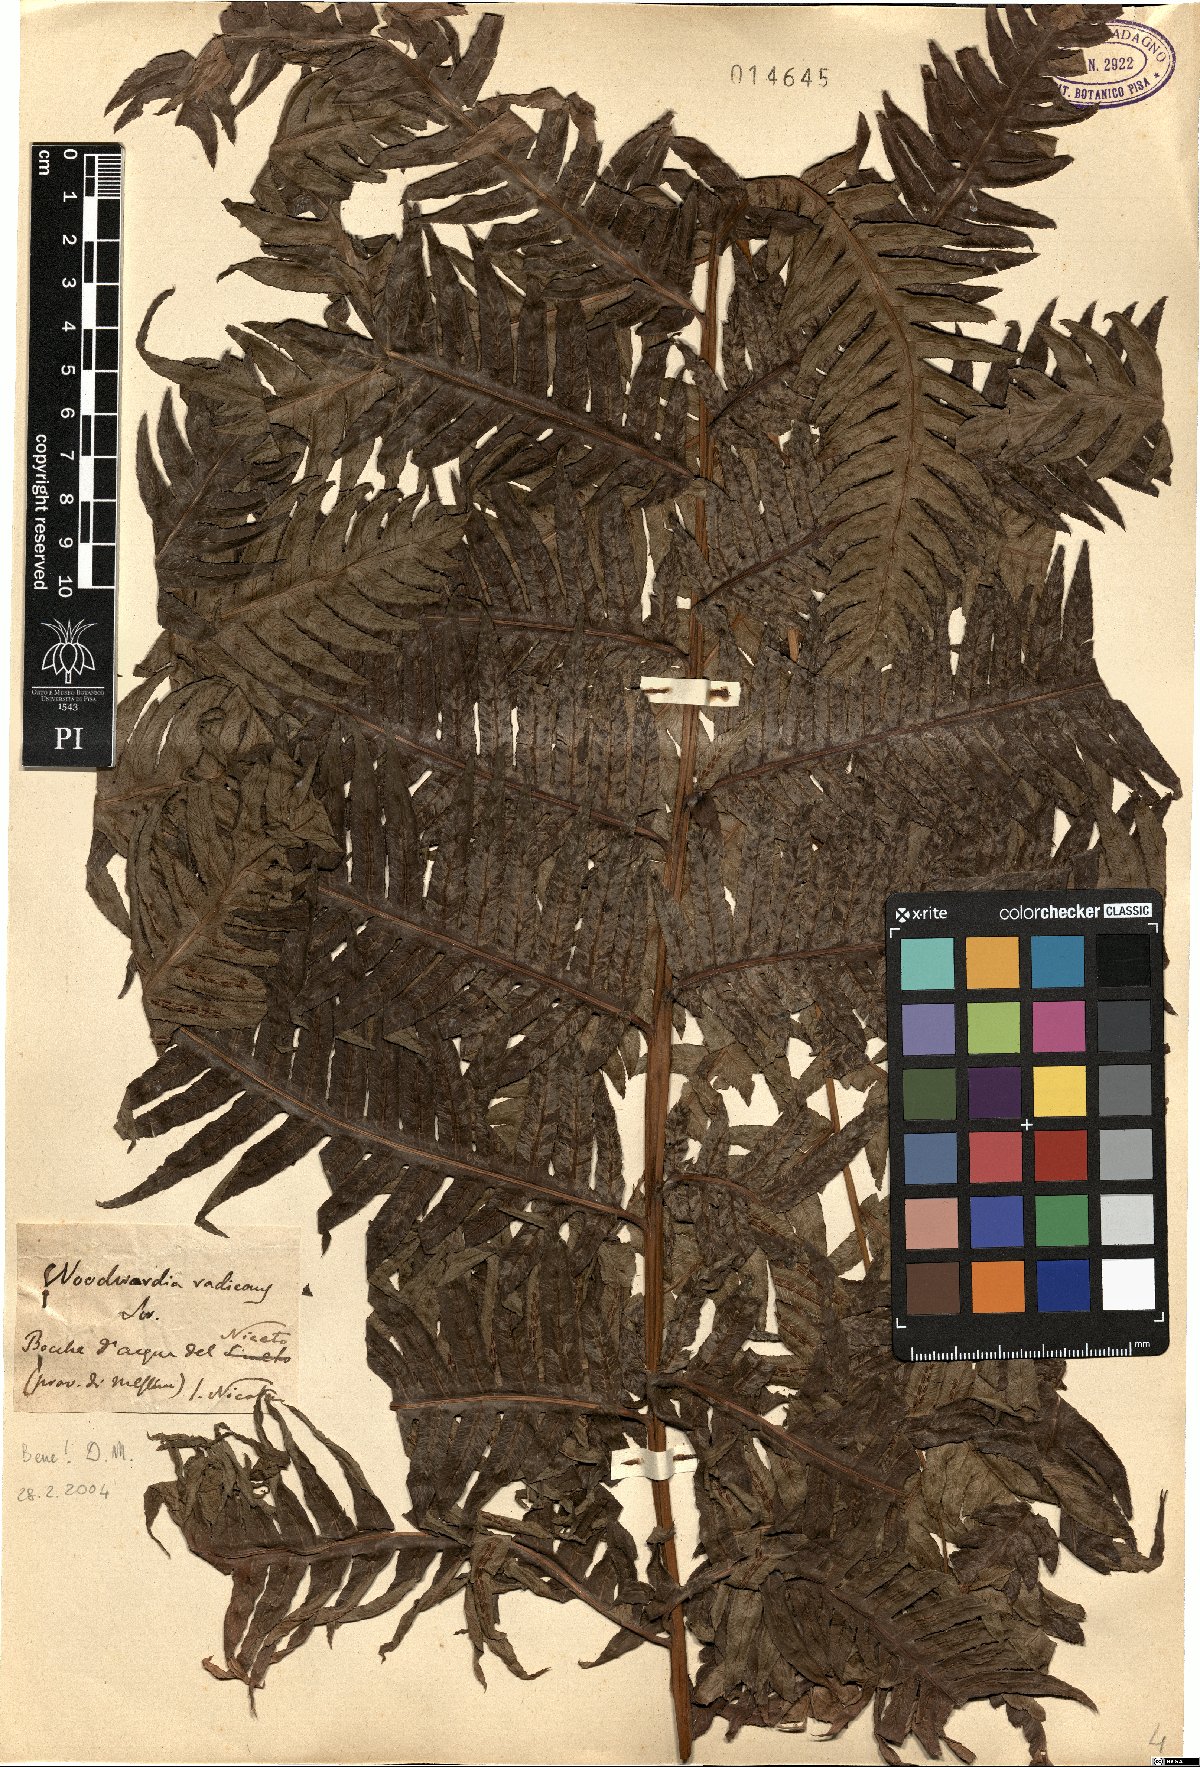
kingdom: Plantae
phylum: Tracheophyta
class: Polypodiopsida
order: Polypodiales
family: Blechnaceae
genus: Woodwardia
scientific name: Woodwardia radicans
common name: Rooting chainfern
